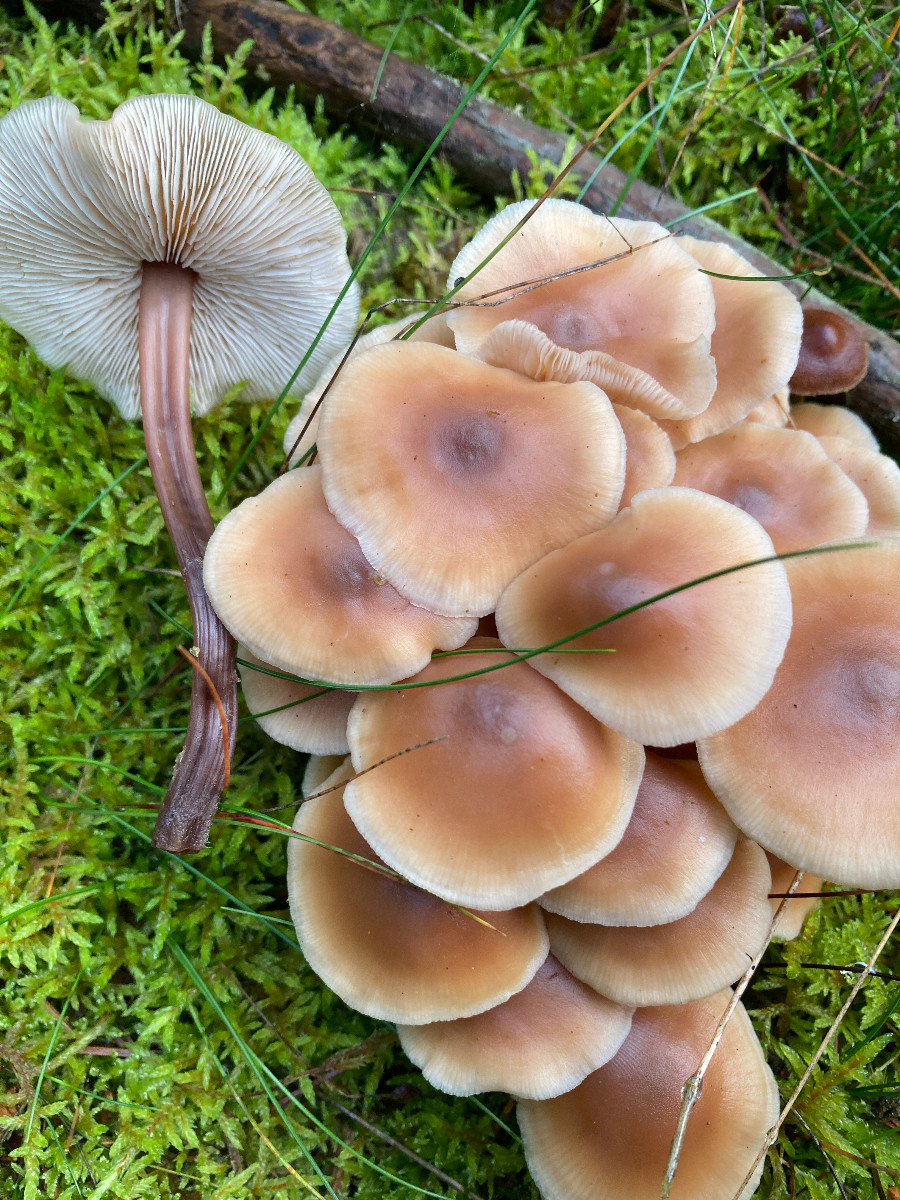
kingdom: Fungi
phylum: Basidiomycota
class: Agaricomycetes
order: Agaricales
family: Omphalotaceae
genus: Connopus
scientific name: Connopus acervatus
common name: tue-fladhat
